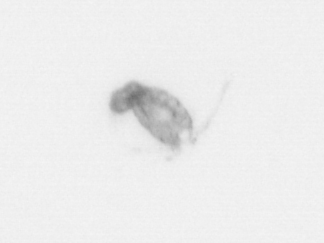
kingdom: Animalia
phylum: Arthropoda
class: Copepoda
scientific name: Copepoda
